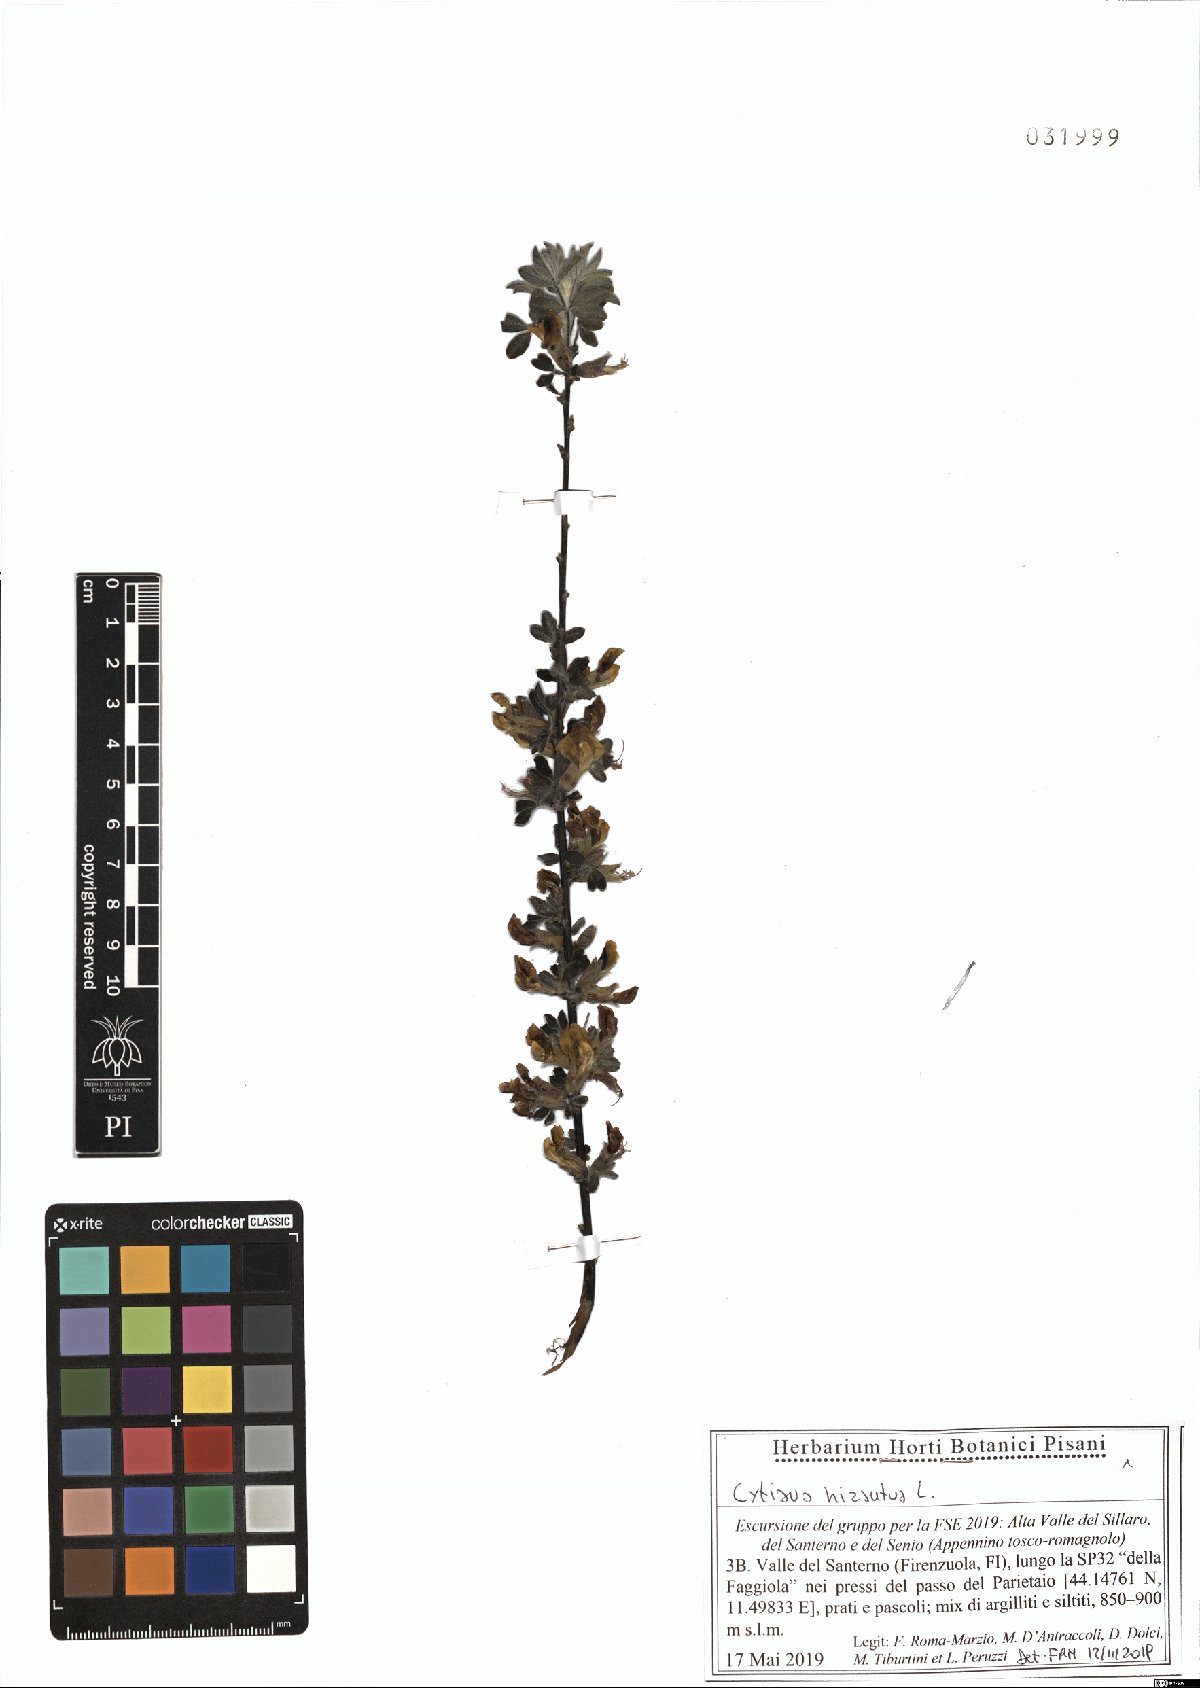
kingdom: Plantae
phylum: Tracheophyta
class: Magnoliopsida
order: Fabales
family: Fabaceae
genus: Chamaecytisus
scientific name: Chamaecytisus hirsutus
